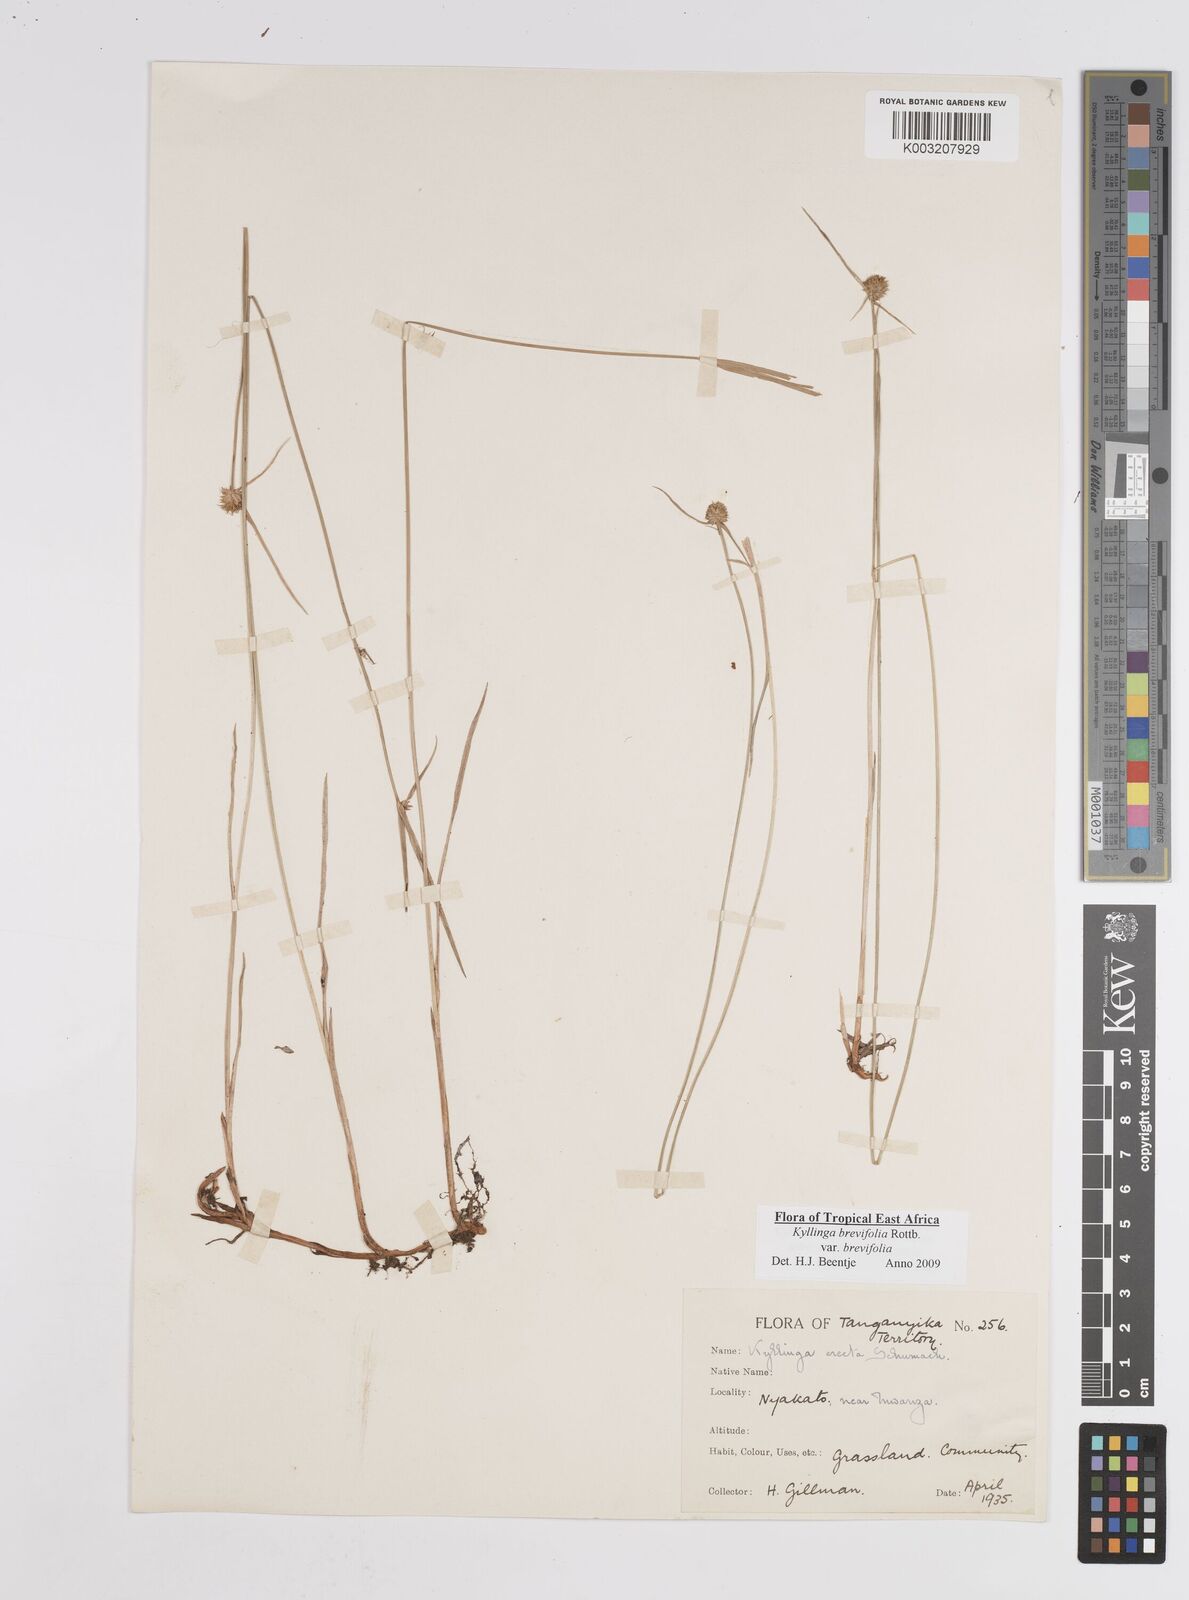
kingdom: Plantae
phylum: Tracheophyta
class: Liliopsida
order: Poales
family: Cyperaceae
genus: Cyperus
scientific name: Cyperus brevifolius
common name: Globe kyllinga
